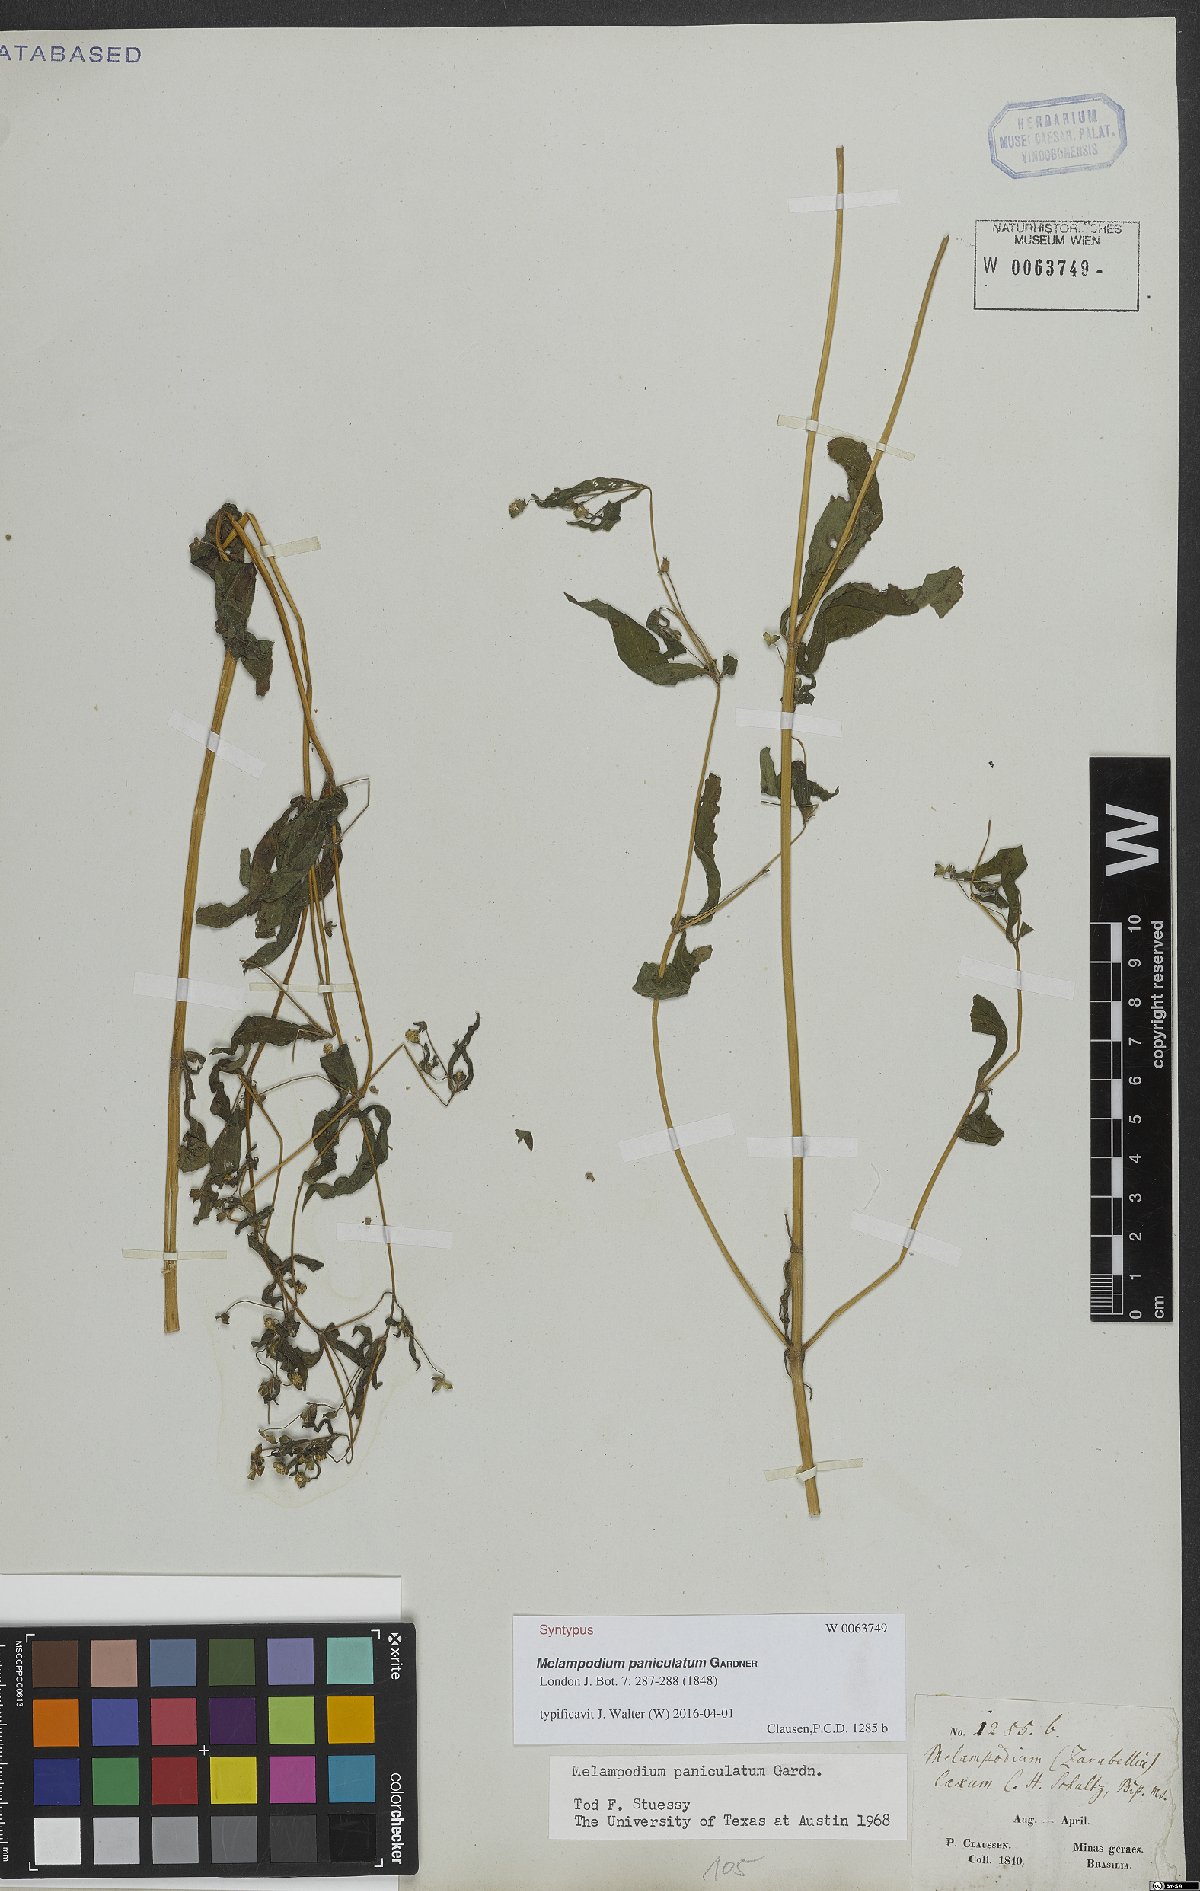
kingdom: Plantae
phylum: Tracheophyta
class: Magnoliopsida
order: Asterales
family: Asteraceae
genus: Melampodium
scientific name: Melampodium paniculatum
